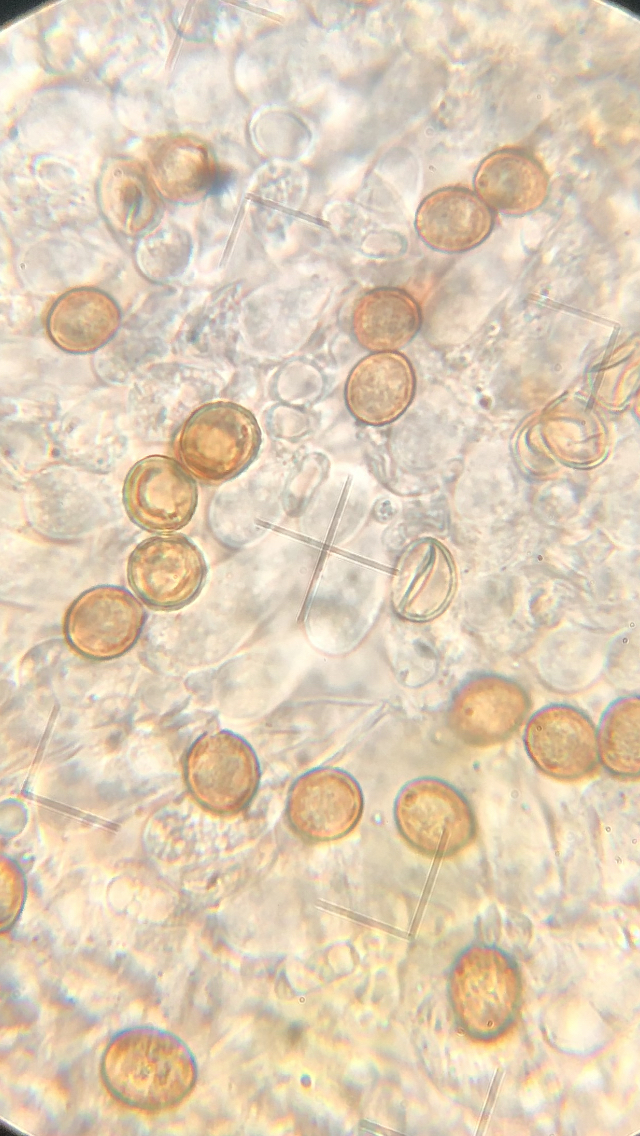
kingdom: Fungi
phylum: Basidiomycota
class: Agaricomycetes
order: Agaricales
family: Chromocyphellaceae
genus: Chromocyphella
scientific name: Chromocyphella muscicola
